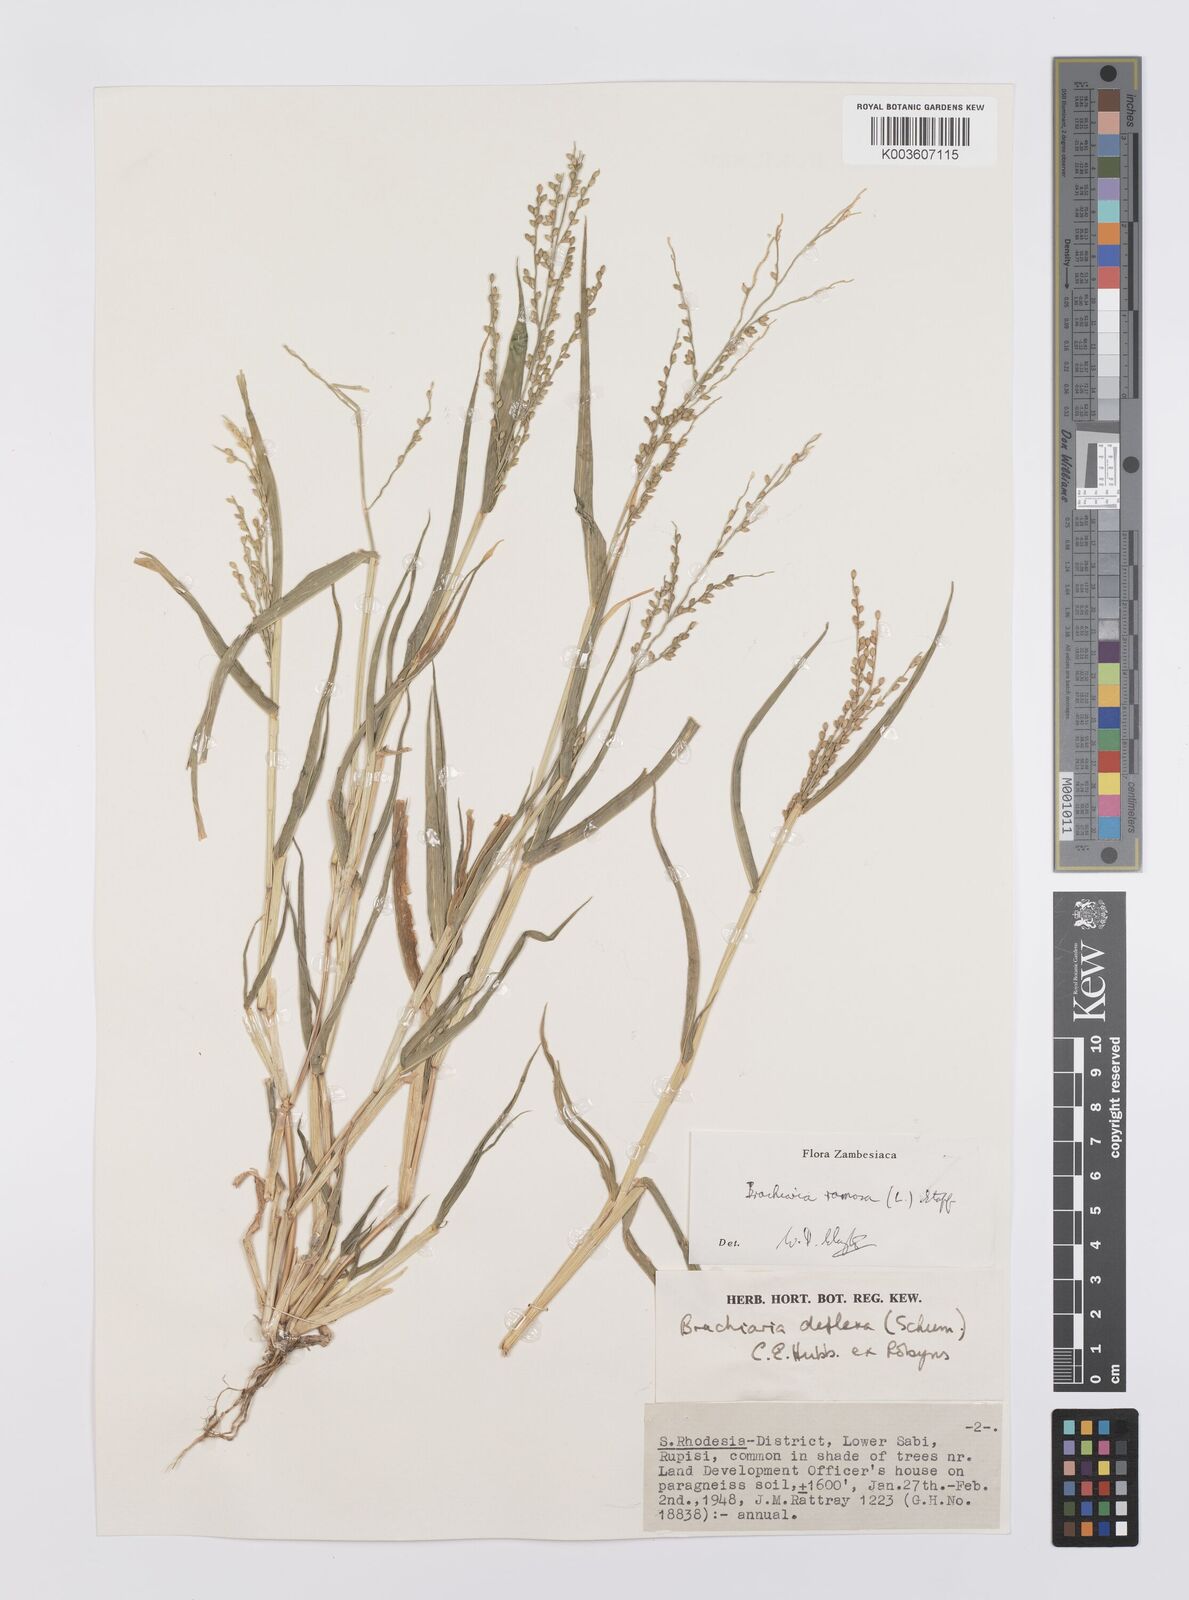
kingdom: Plantae
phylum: Tracheophyta
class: Liliopsida
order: Poales
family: Poaceae
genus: Urochloa
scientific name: Urochloa ramosa
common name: Browntop millet
